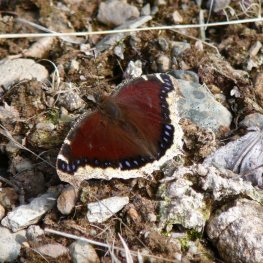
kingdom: Animalia
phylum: Arthropoda
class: Insecta
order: Lepidoptera
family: Nymphalidae
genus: Nymphalis
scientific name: Nymphalis antiopa
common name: Mourning Cloak
